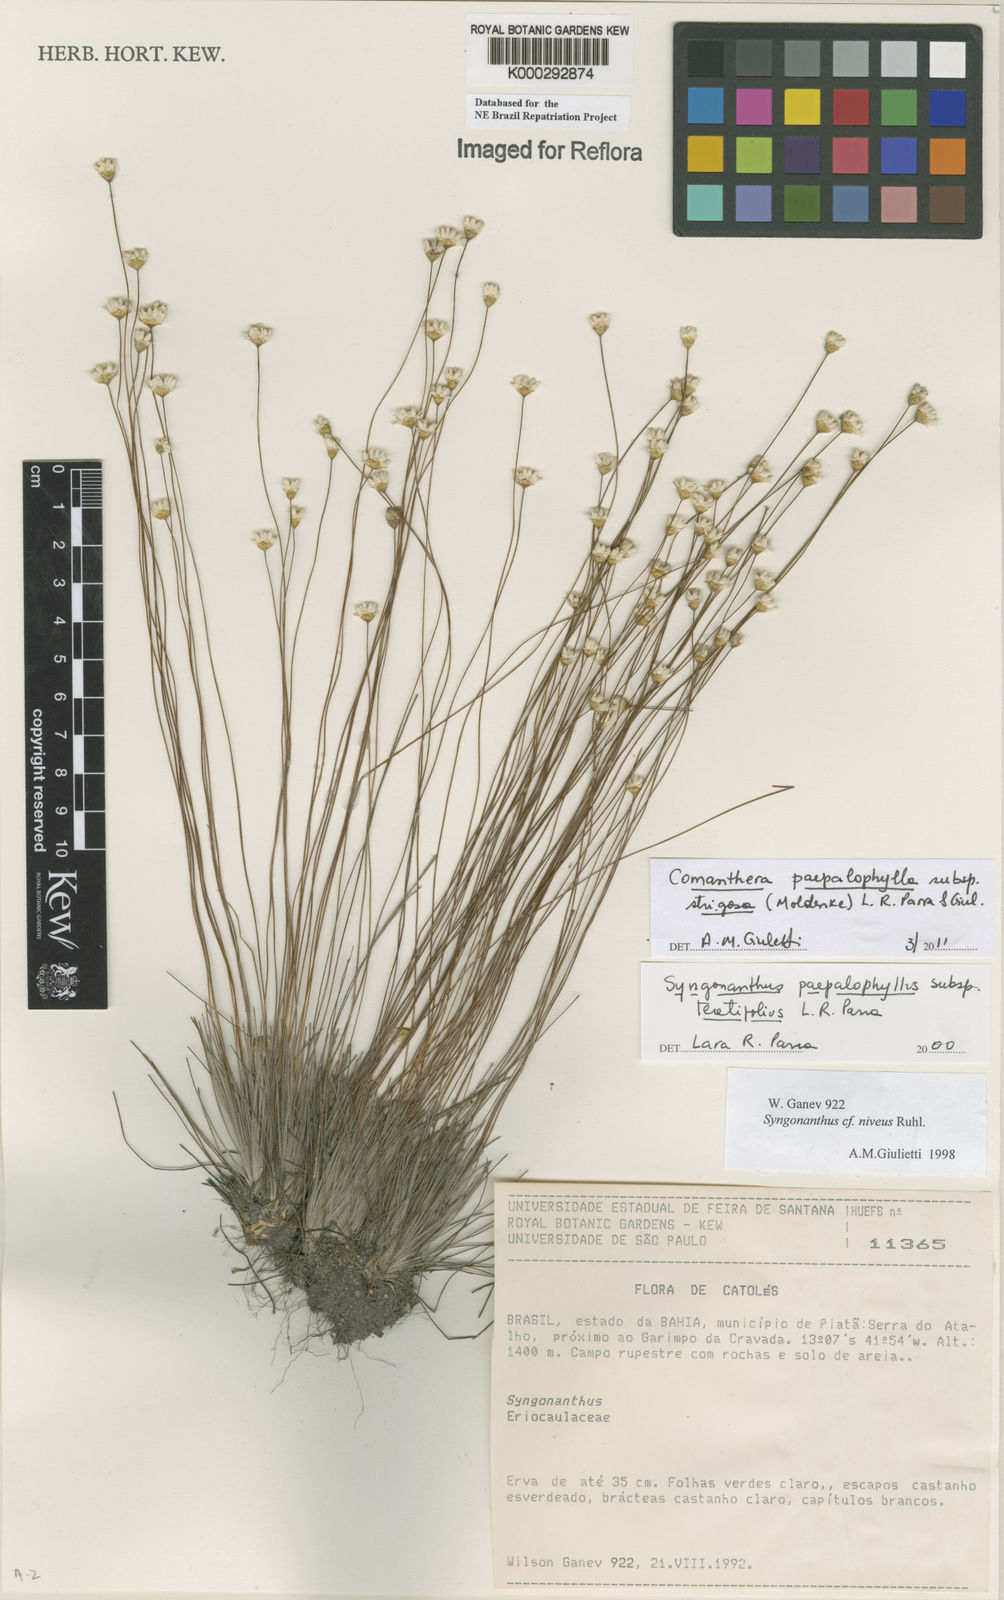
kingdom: Plantae
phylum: Tracheophyta
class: Liliopsida
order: Poales
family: Eriocaulaceae
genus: Comanthera
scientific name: Comanthera paepalophylla
